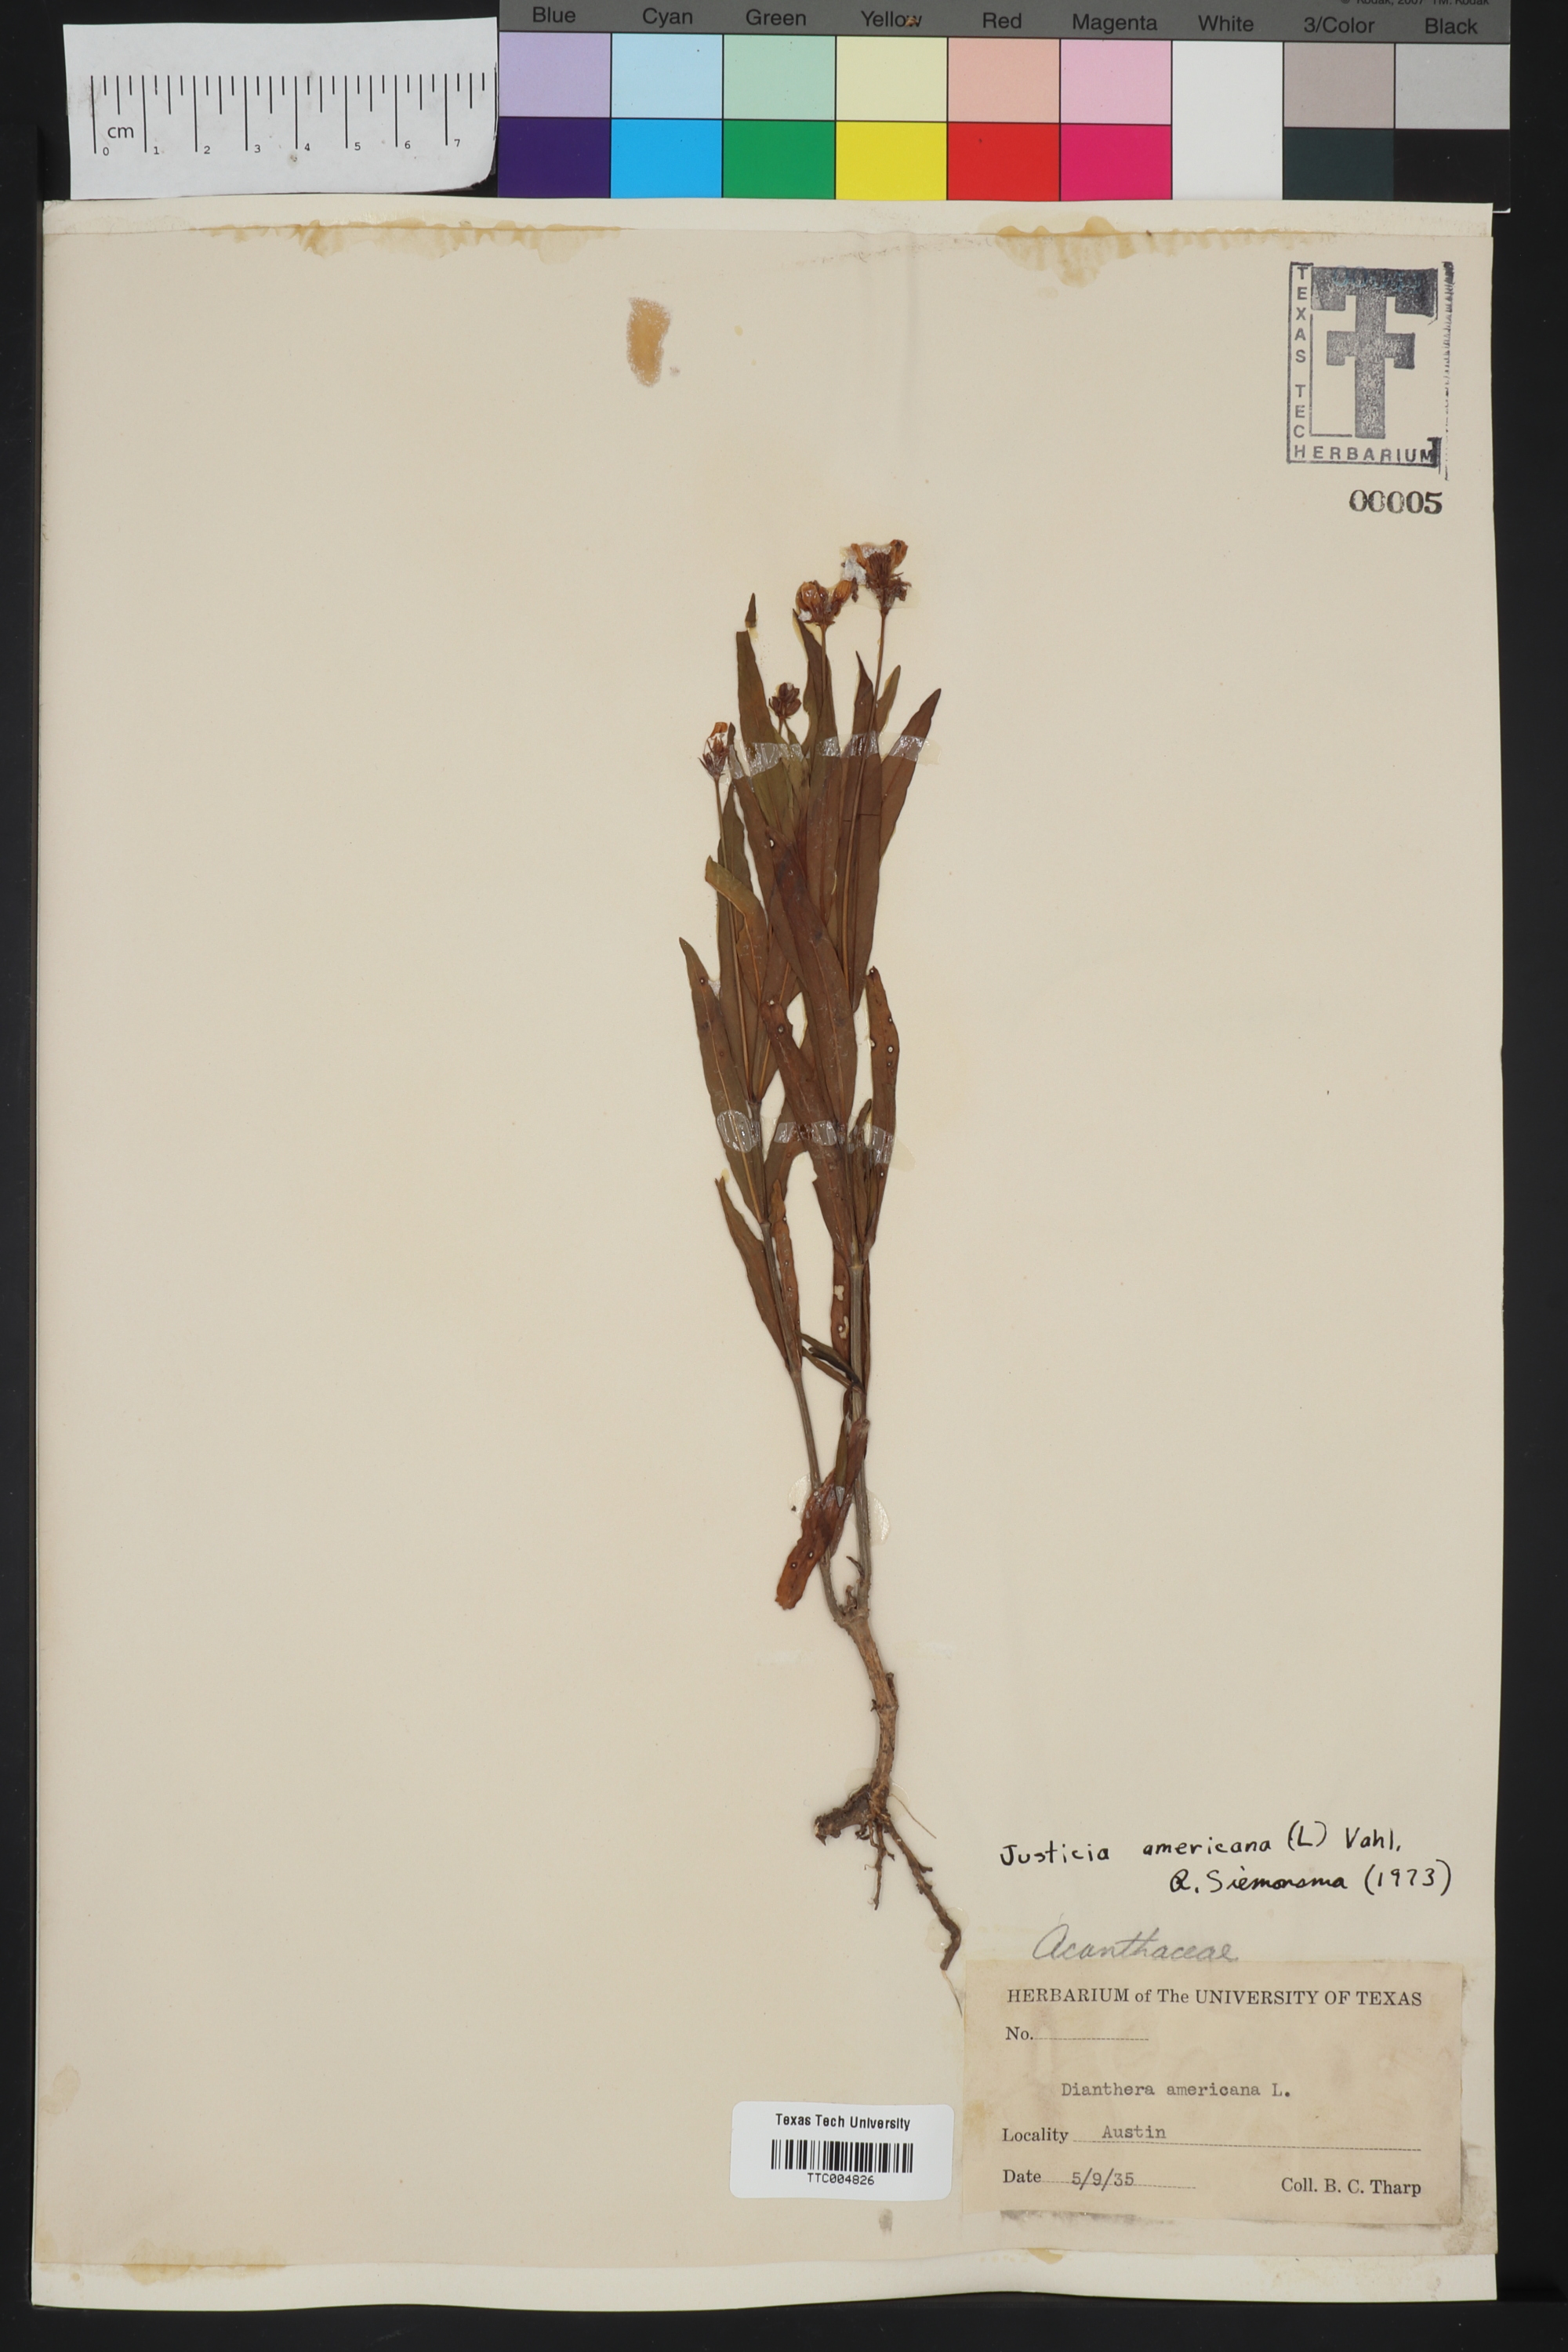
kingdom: Plantae
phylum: Tracheophyta
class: Magnoliopsida
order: Lamiales
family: Acanthaceae
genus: Dianthera
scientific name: Dianthera americana
